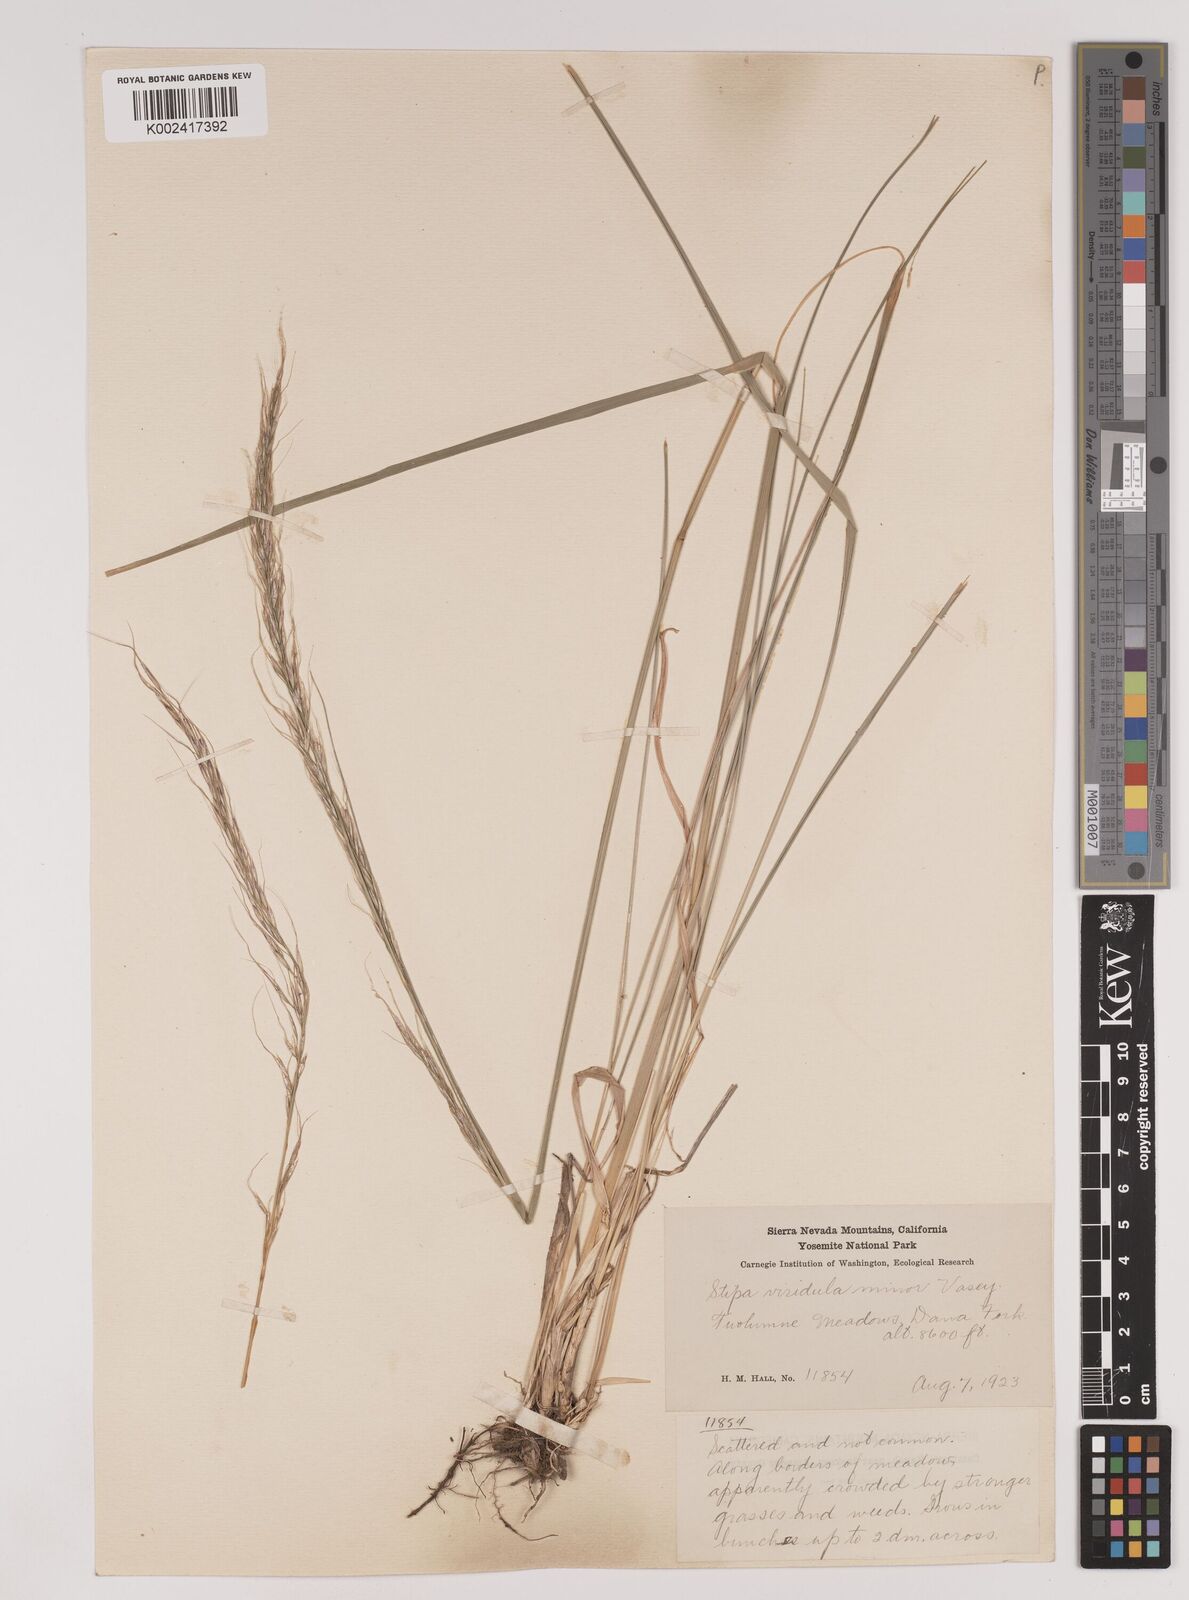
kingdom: Plantae
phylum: Tracheophyta
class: Liliopsida
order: Poales
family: Poaceae
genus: Nassella
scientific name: Nassella viridula
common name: Green needlegrass
